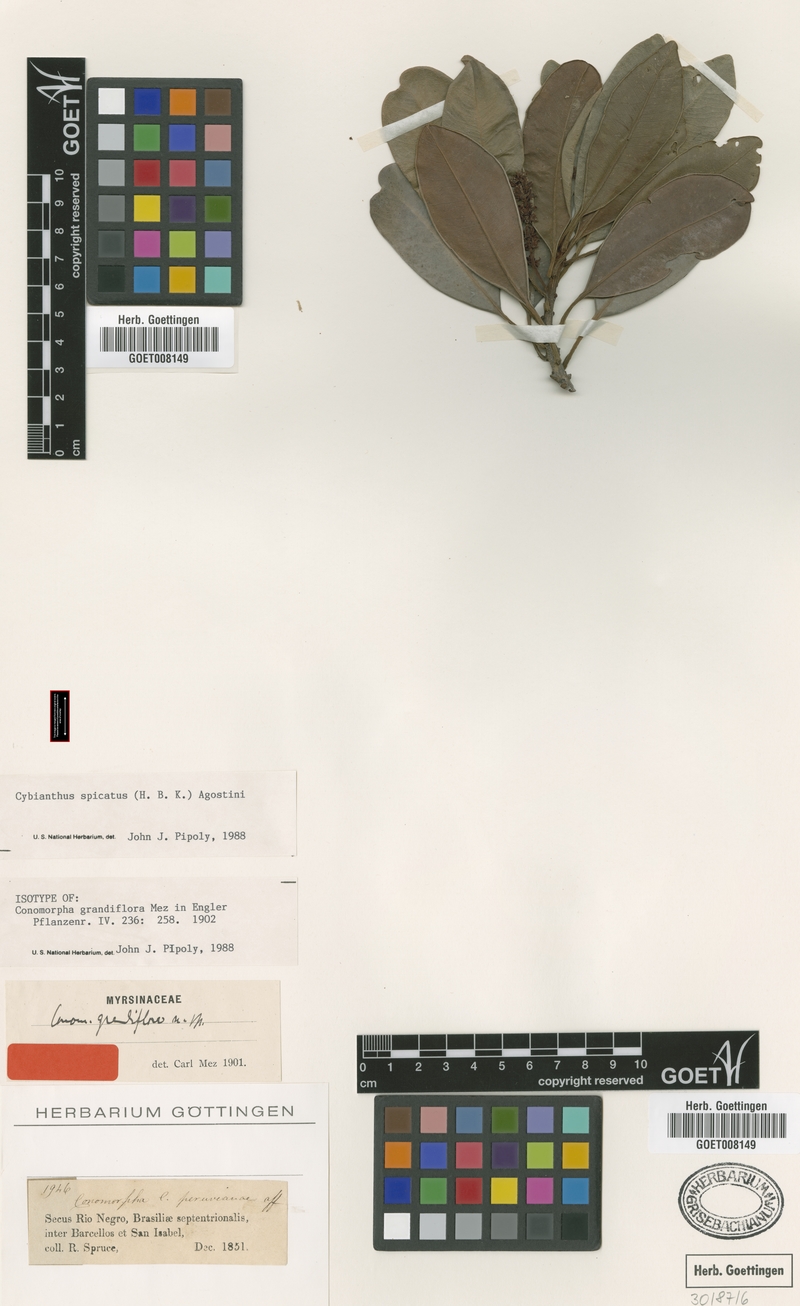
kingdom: Plantae
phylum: Tracheophyta
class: Magnoliopsida
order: Ericales
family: Primulaceae
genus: Cybianthus
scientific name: Cybianthus spicatus
